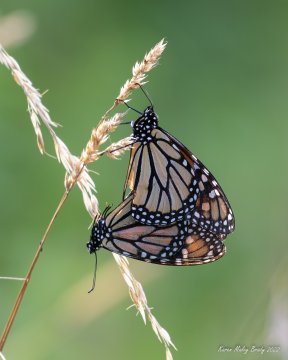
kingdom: Animalia
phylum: Arthropoda
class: Insecta
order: Lepidoptera
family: Nymphalidae
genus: Danaus
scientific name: Danaus plexippus
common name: Monarch
